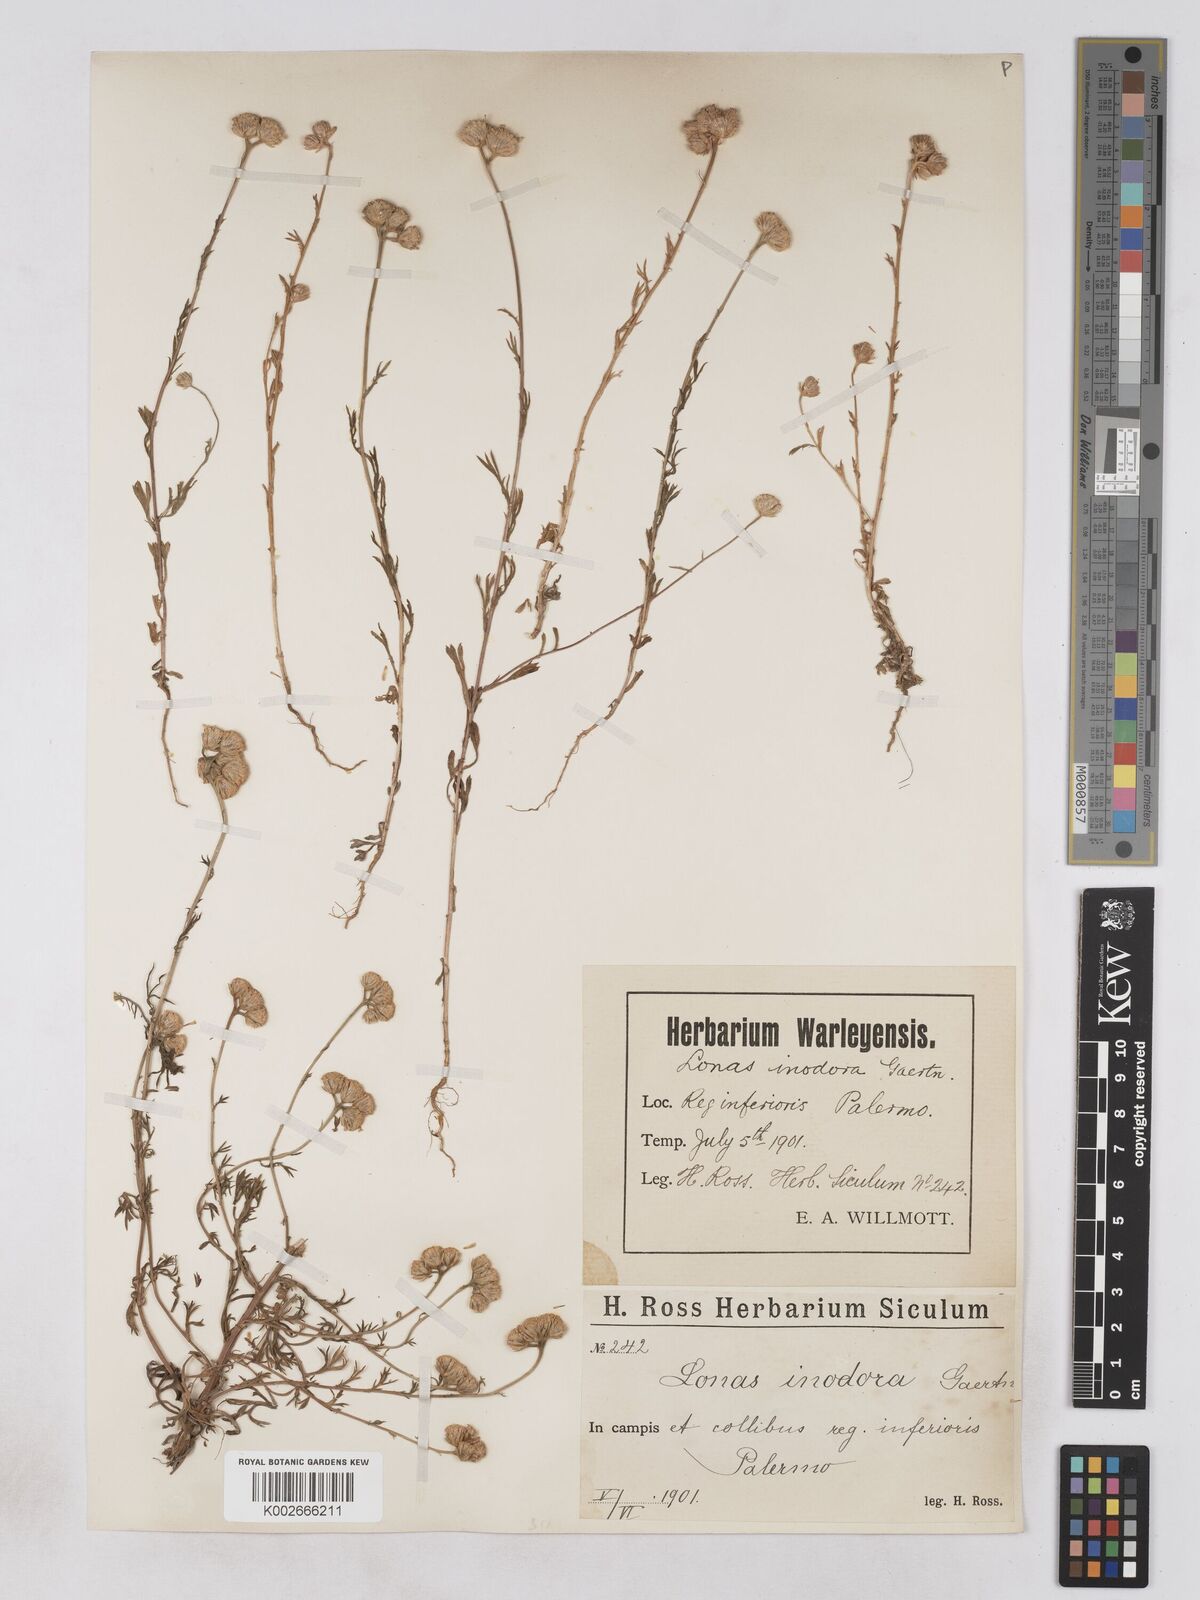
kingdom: Plantae
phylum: Tracheophyta
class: Magnoliopsida
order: Asterales
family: Asteraceae
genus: Lonas
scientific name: Lonas
